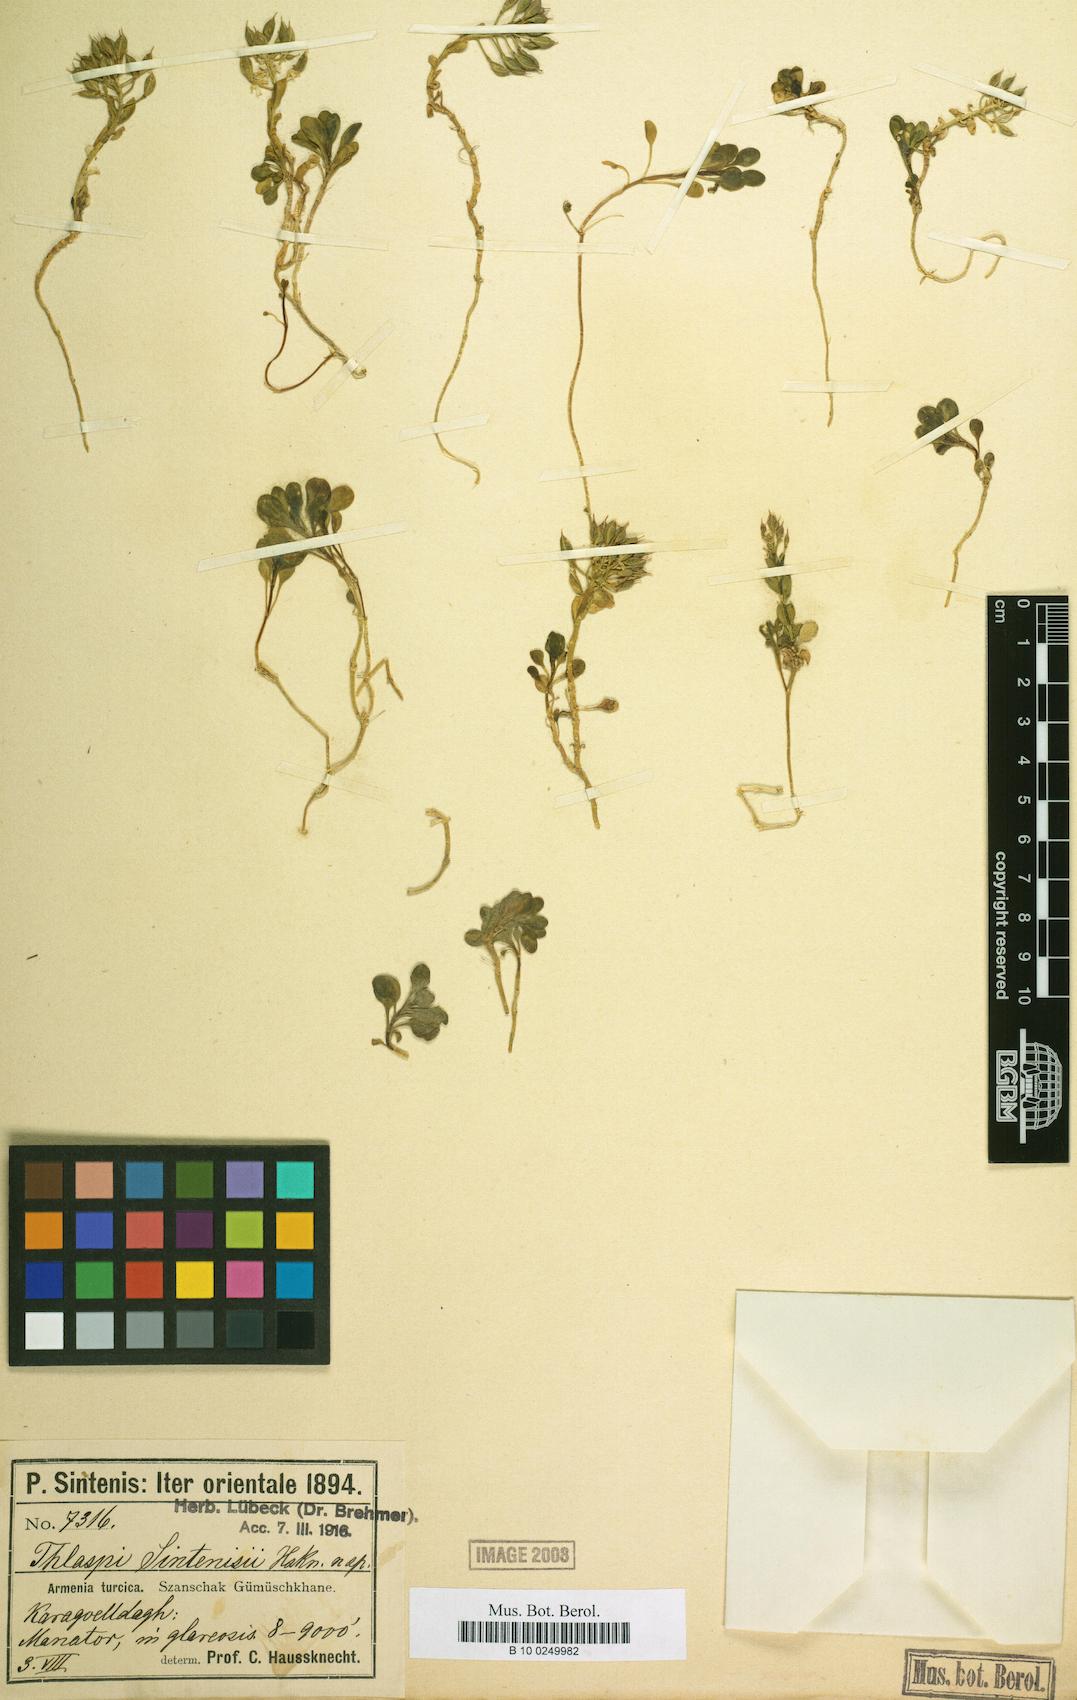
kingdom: Plantae
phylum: Tracheophyta
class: Magnoliopsida
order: Brassicales
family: Brassicaceae
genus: Noccaea
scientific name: Noccaea sintenisii
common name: Sintensis' penny-cress
